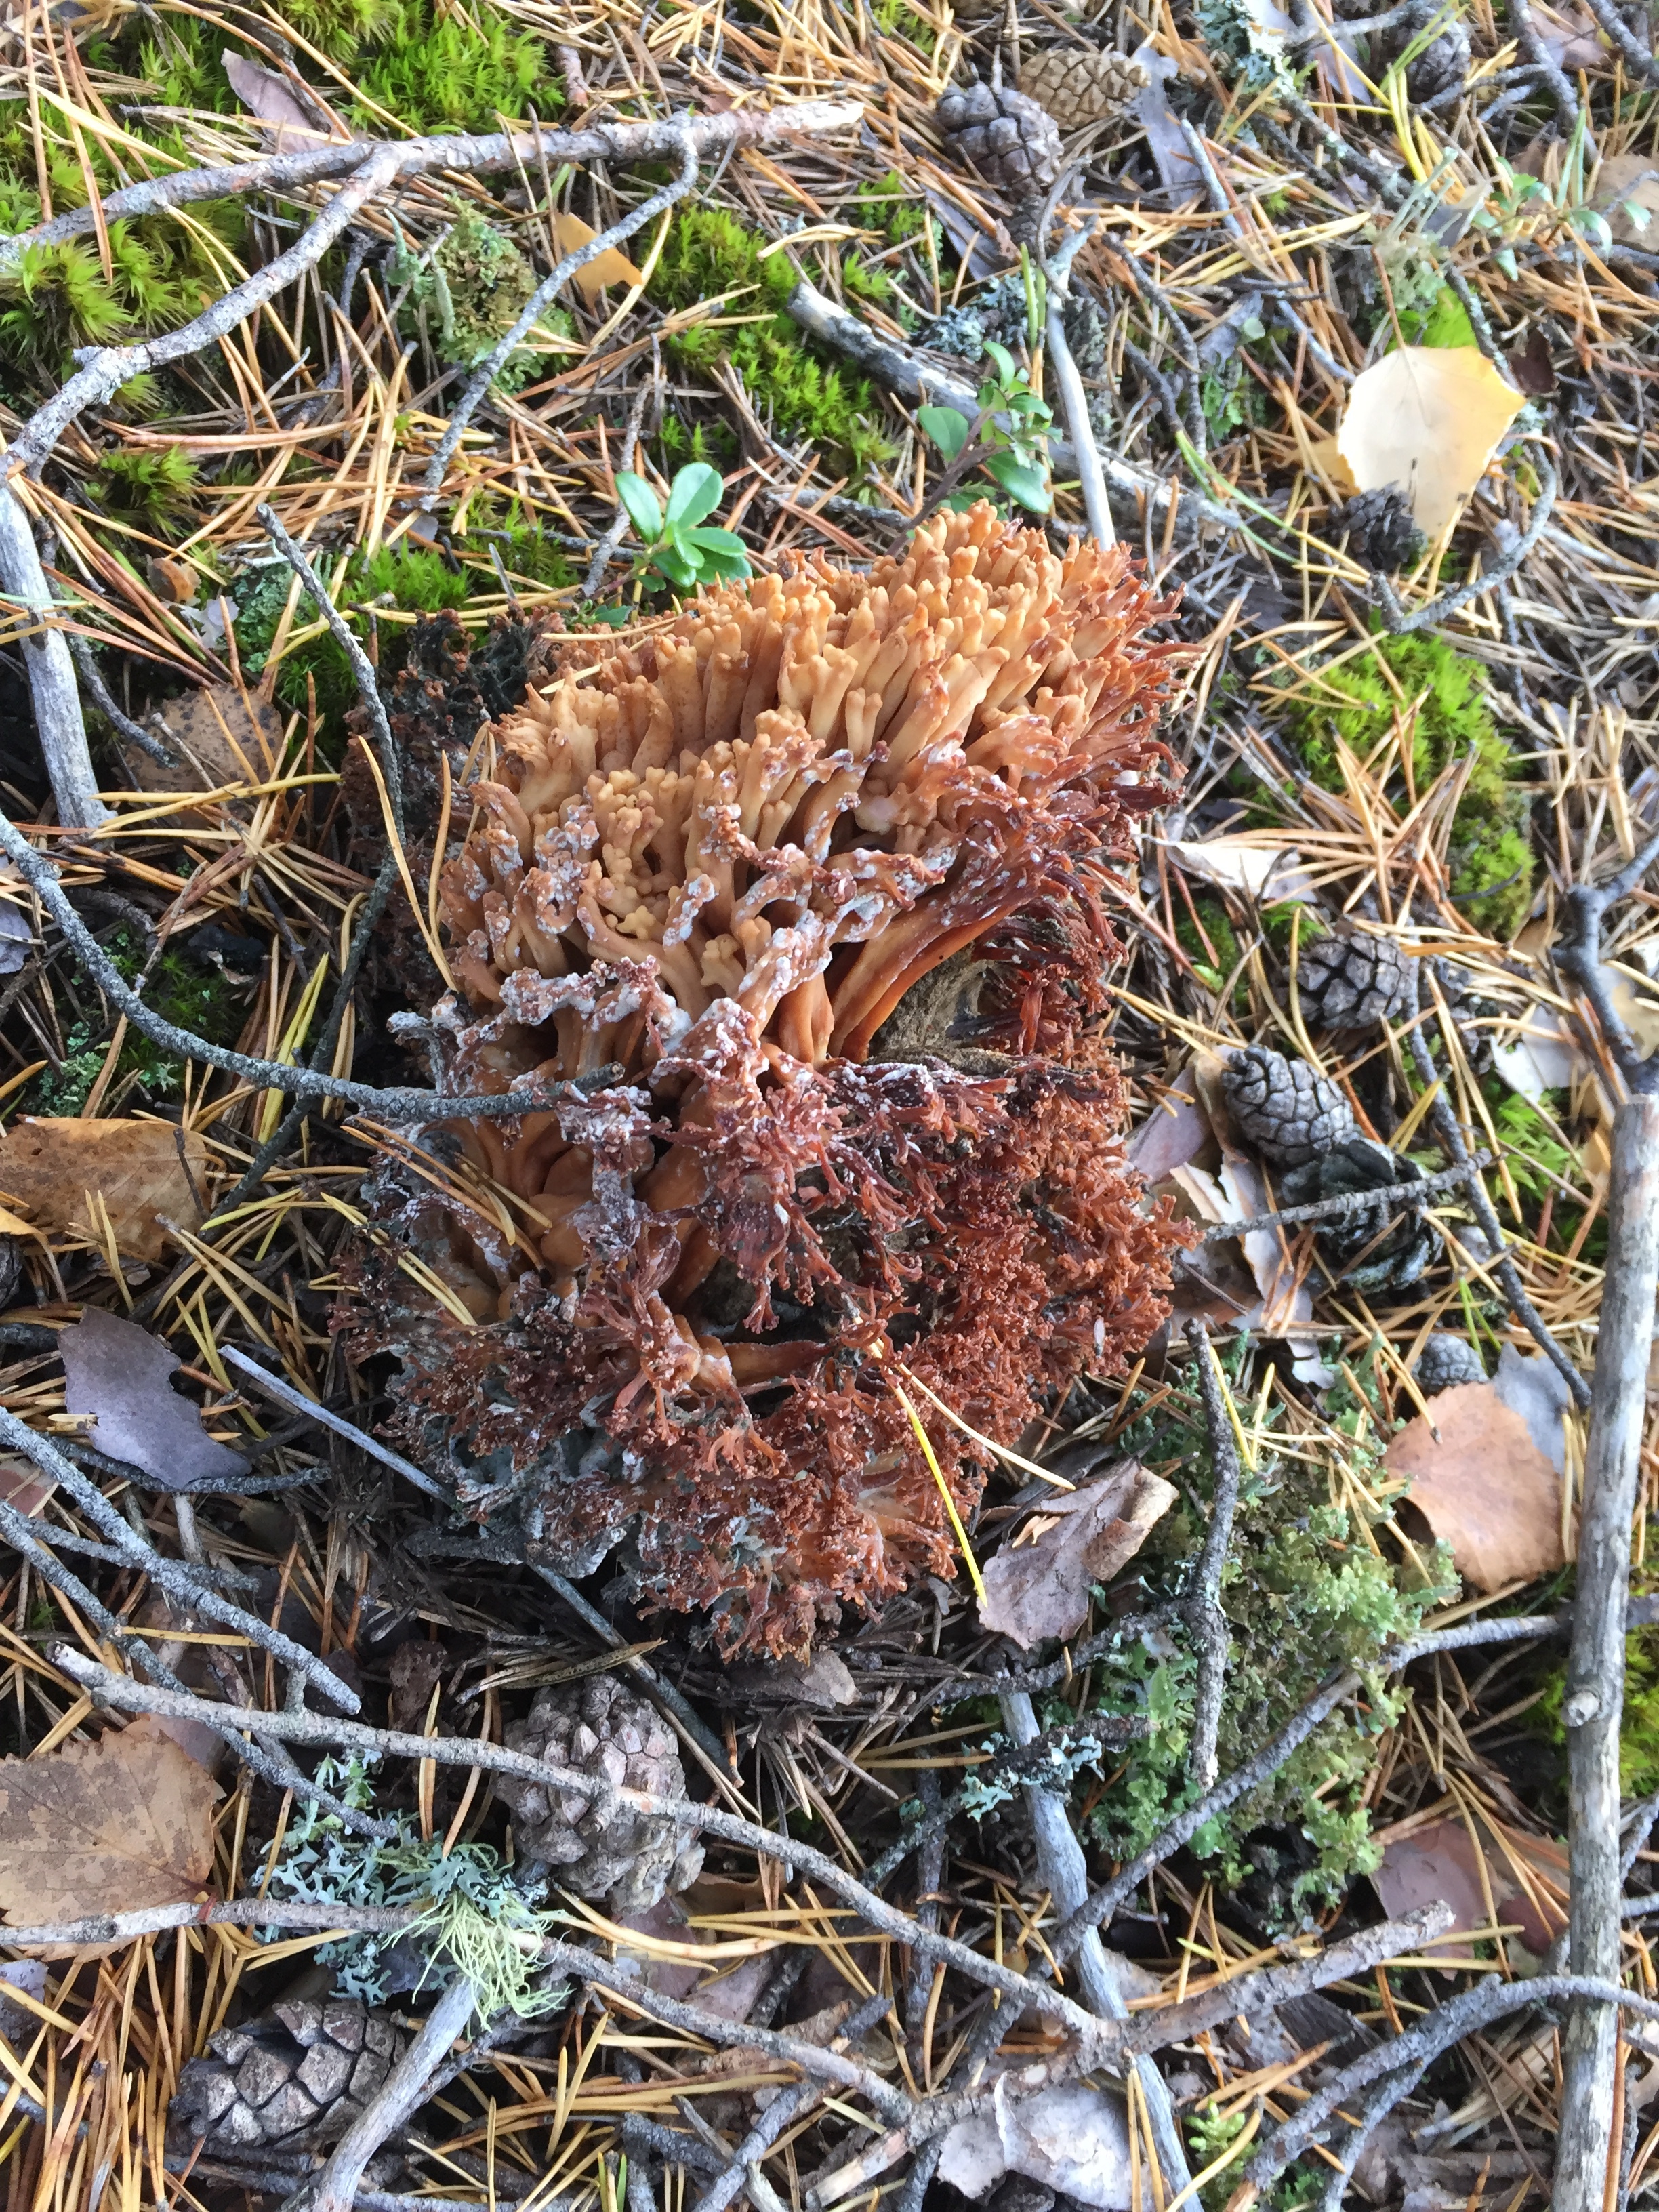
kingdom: Fungi
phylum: Basidiomycota
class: Agaricomycetes
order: Gomphales
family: Gomphaceae
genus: Ramaria
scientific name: Ramaria
